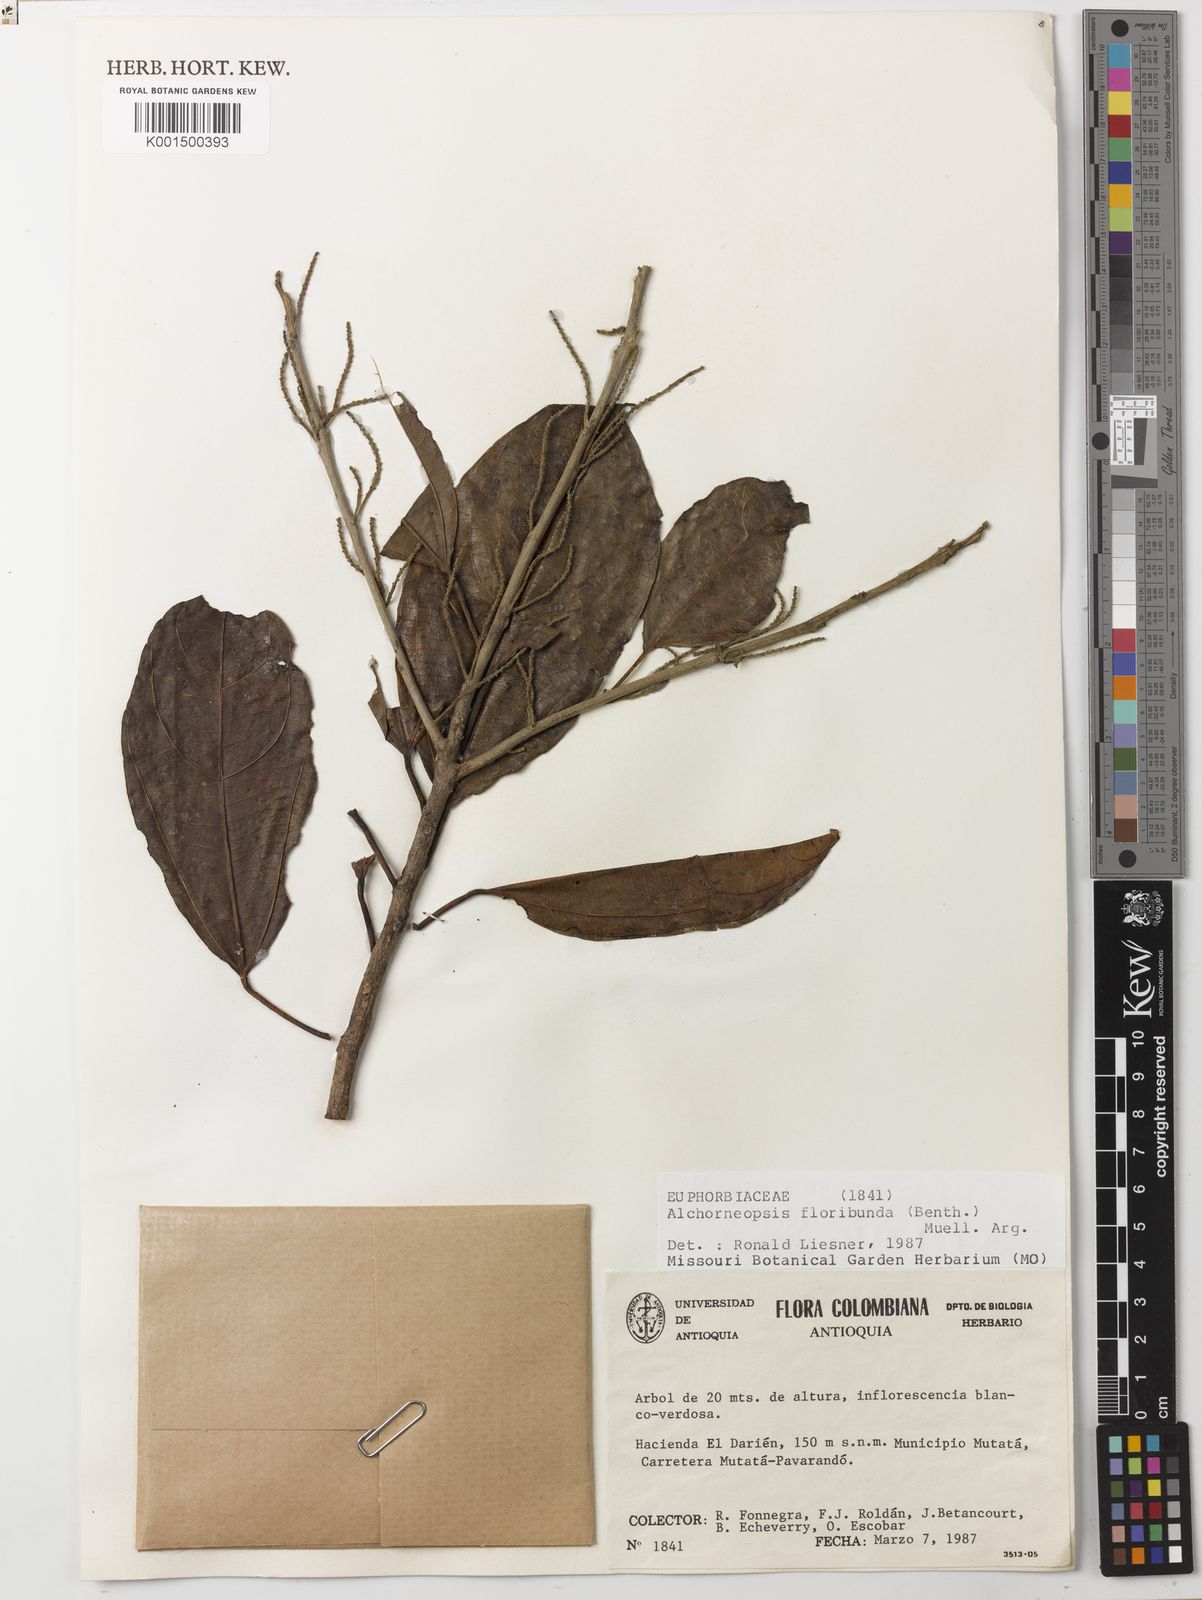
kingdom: Plantae
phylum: Tracheophyta
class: Magnoliopsida
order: Malpighiales
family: Euphorbiaceae
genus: Alchorneopsis
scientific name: Alchorneopsis floribunda
